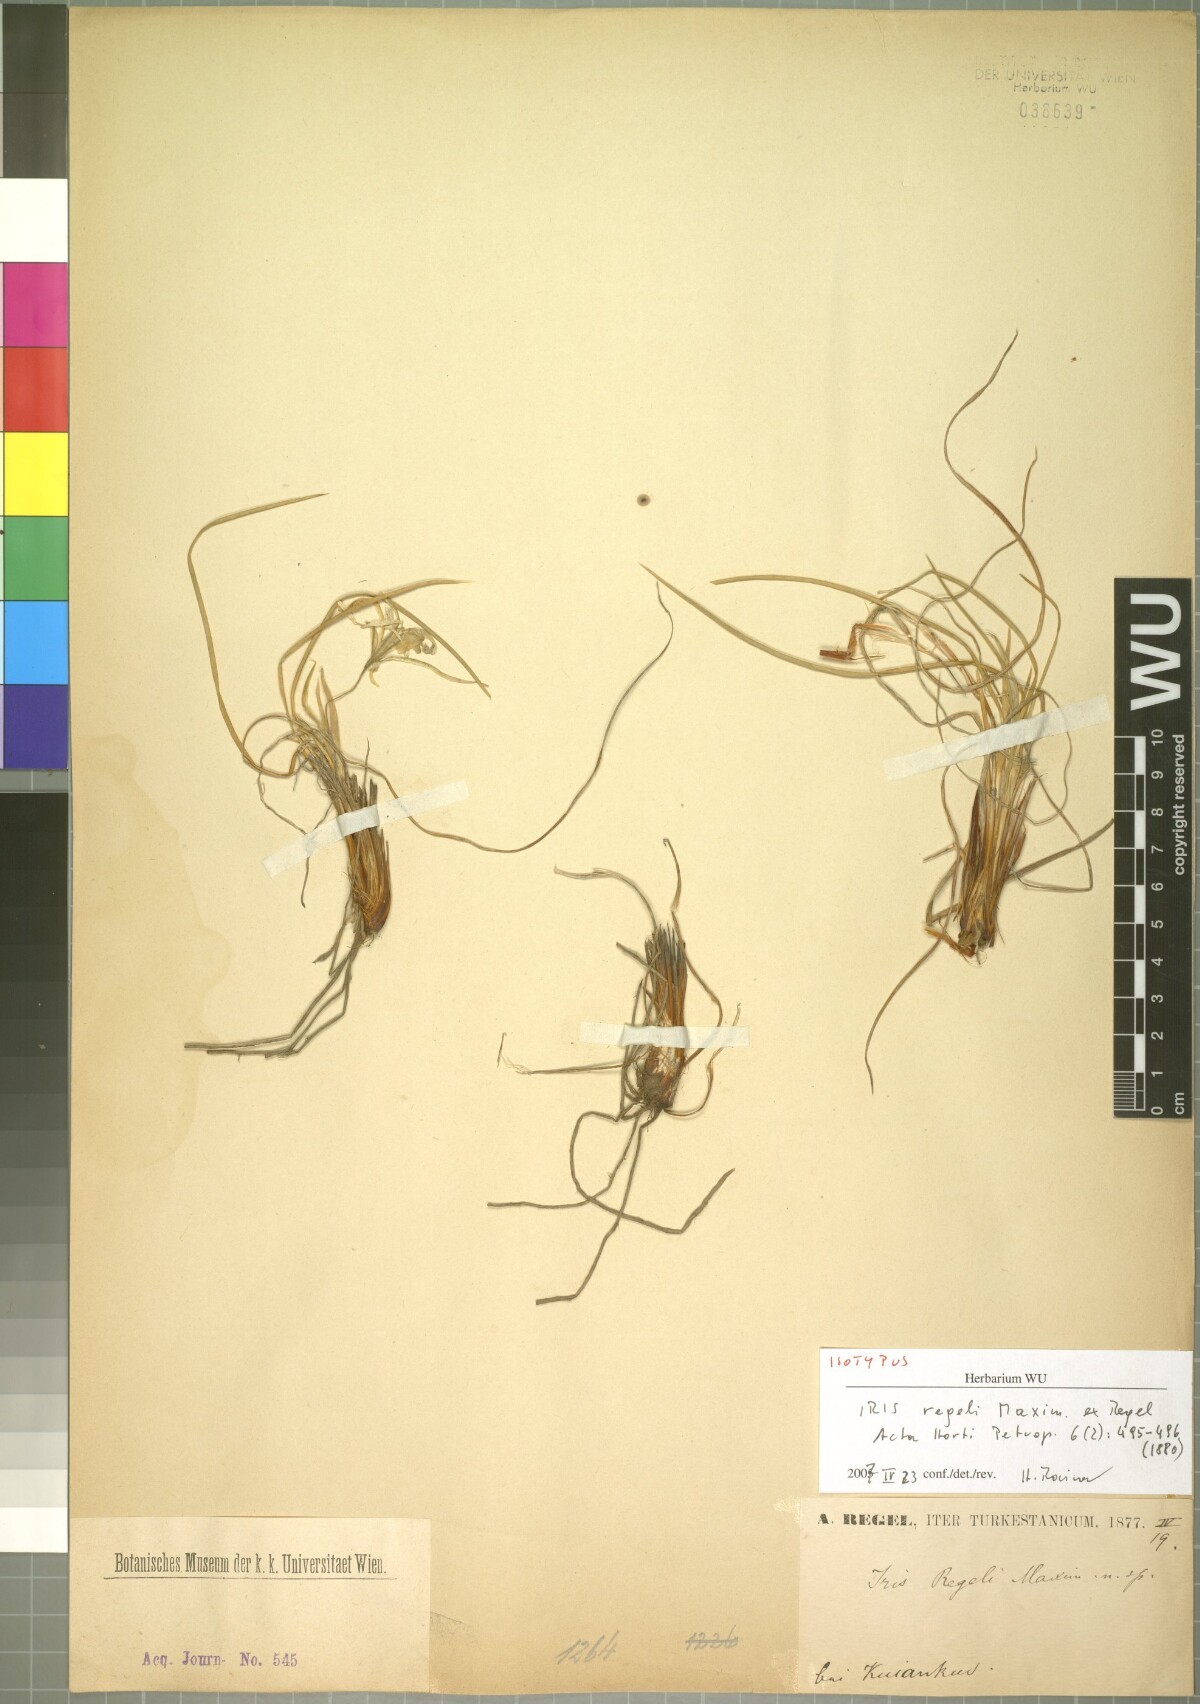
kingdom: Plantae
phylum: Tracheophyta
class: Liliopsida
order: Asparagales
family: Iridaceae
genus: Iris
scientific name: Iris tenuifolia
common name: Slender-leaf iris
